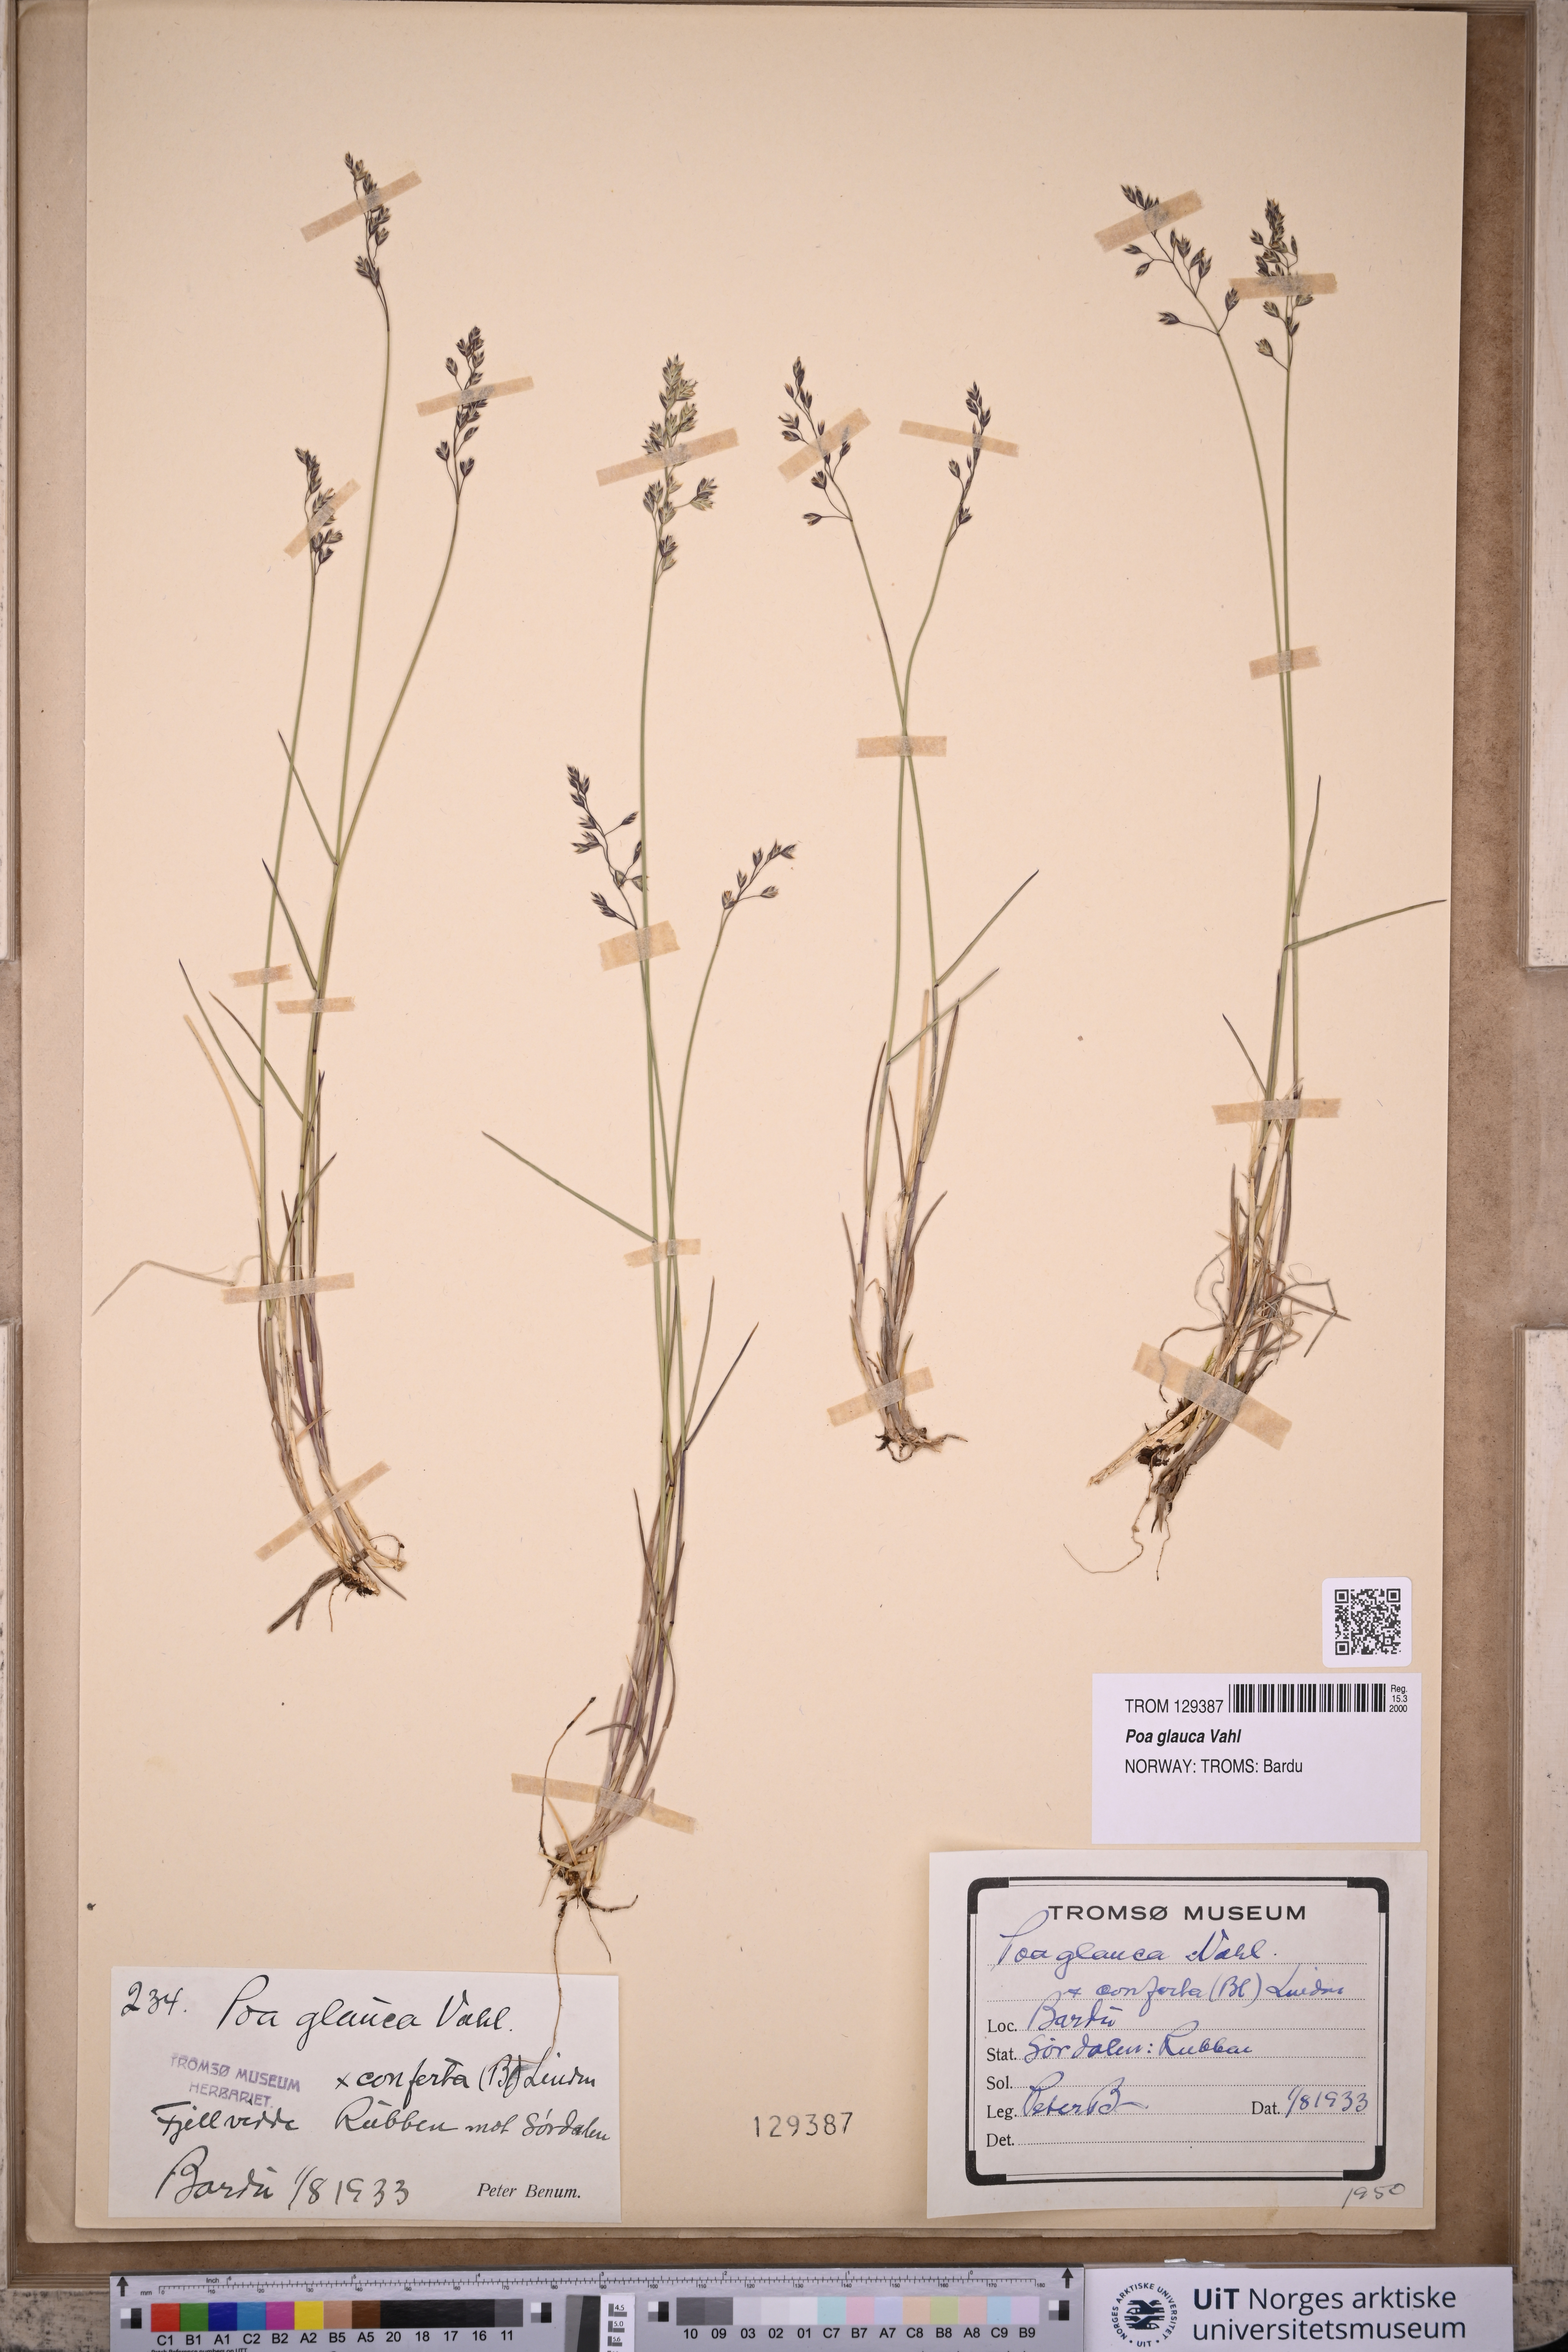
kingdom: Plantae
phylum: Tracheophyta
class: Liliopsida
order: Poales
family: Poaceae
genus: Poa
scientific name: Poa glauca
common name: Glaucous bluegrass
